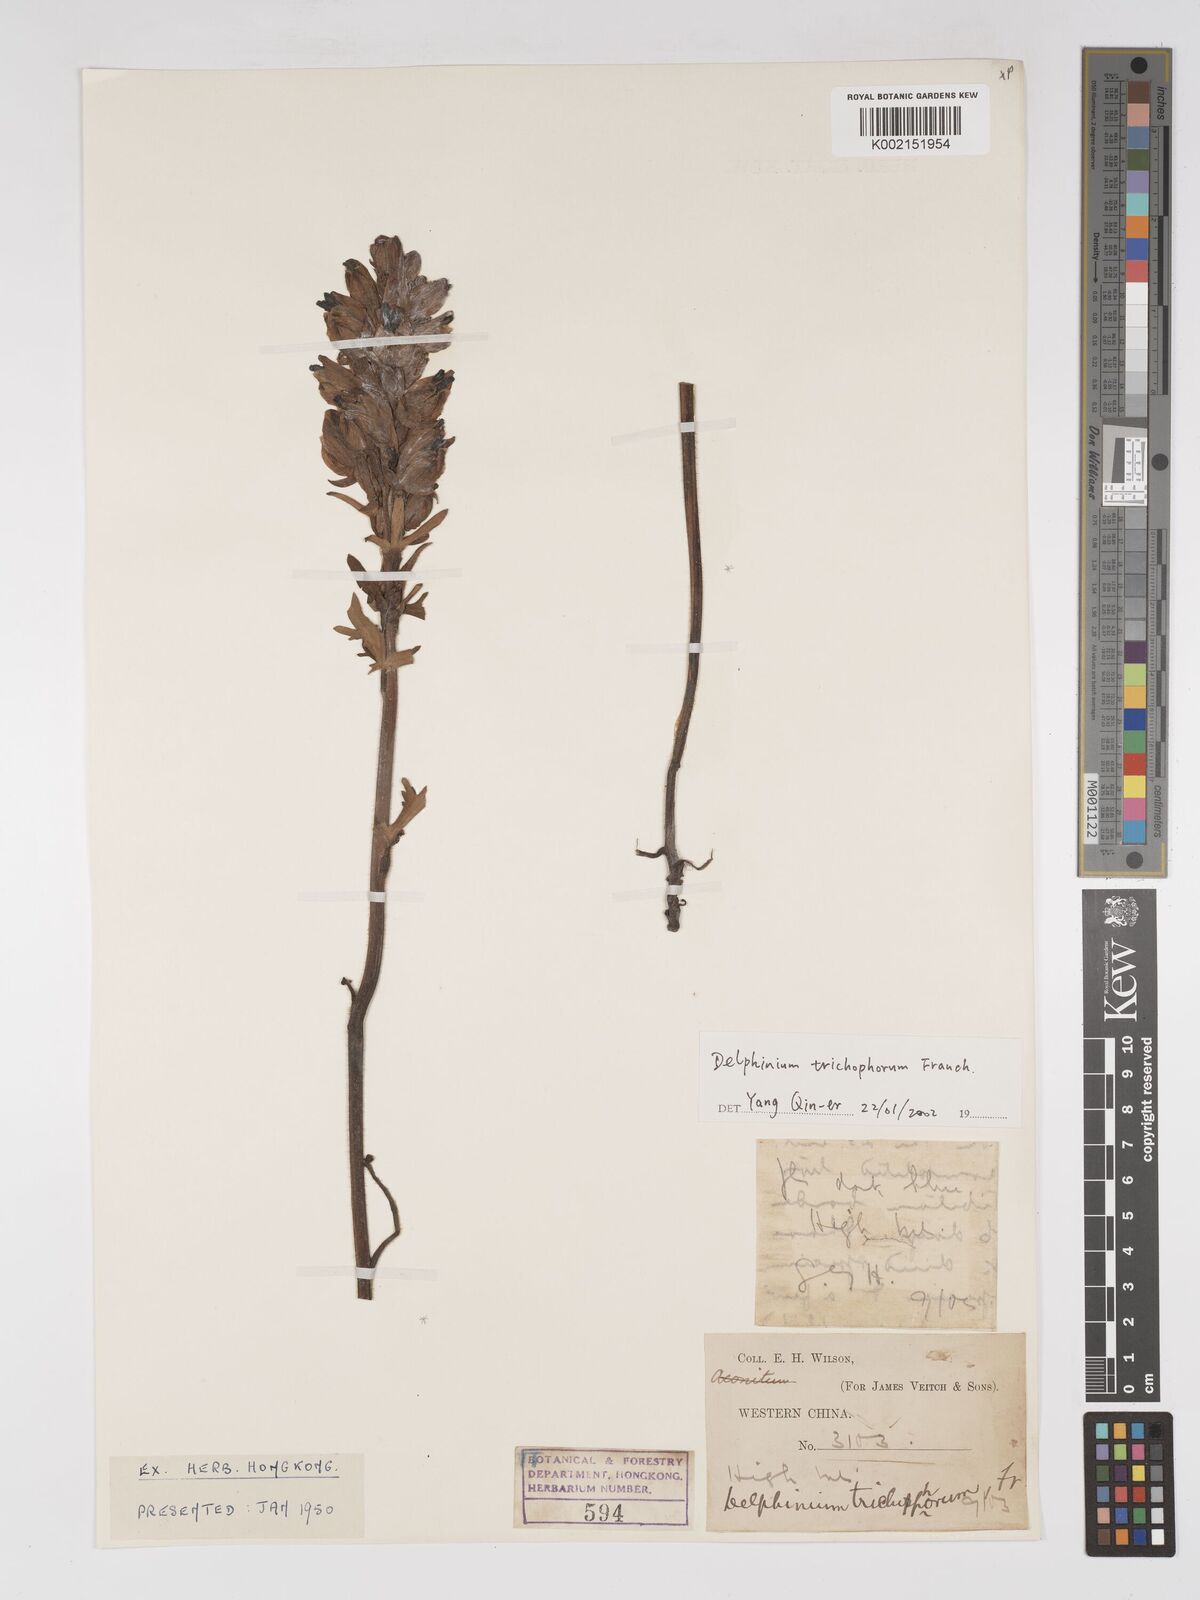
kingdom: Plantae
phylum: Tracheophyta
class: Magnoliopsida
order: Ranunculales
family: Ranunculaceae
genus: Delphinium
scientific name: Delphinium trichophorum
